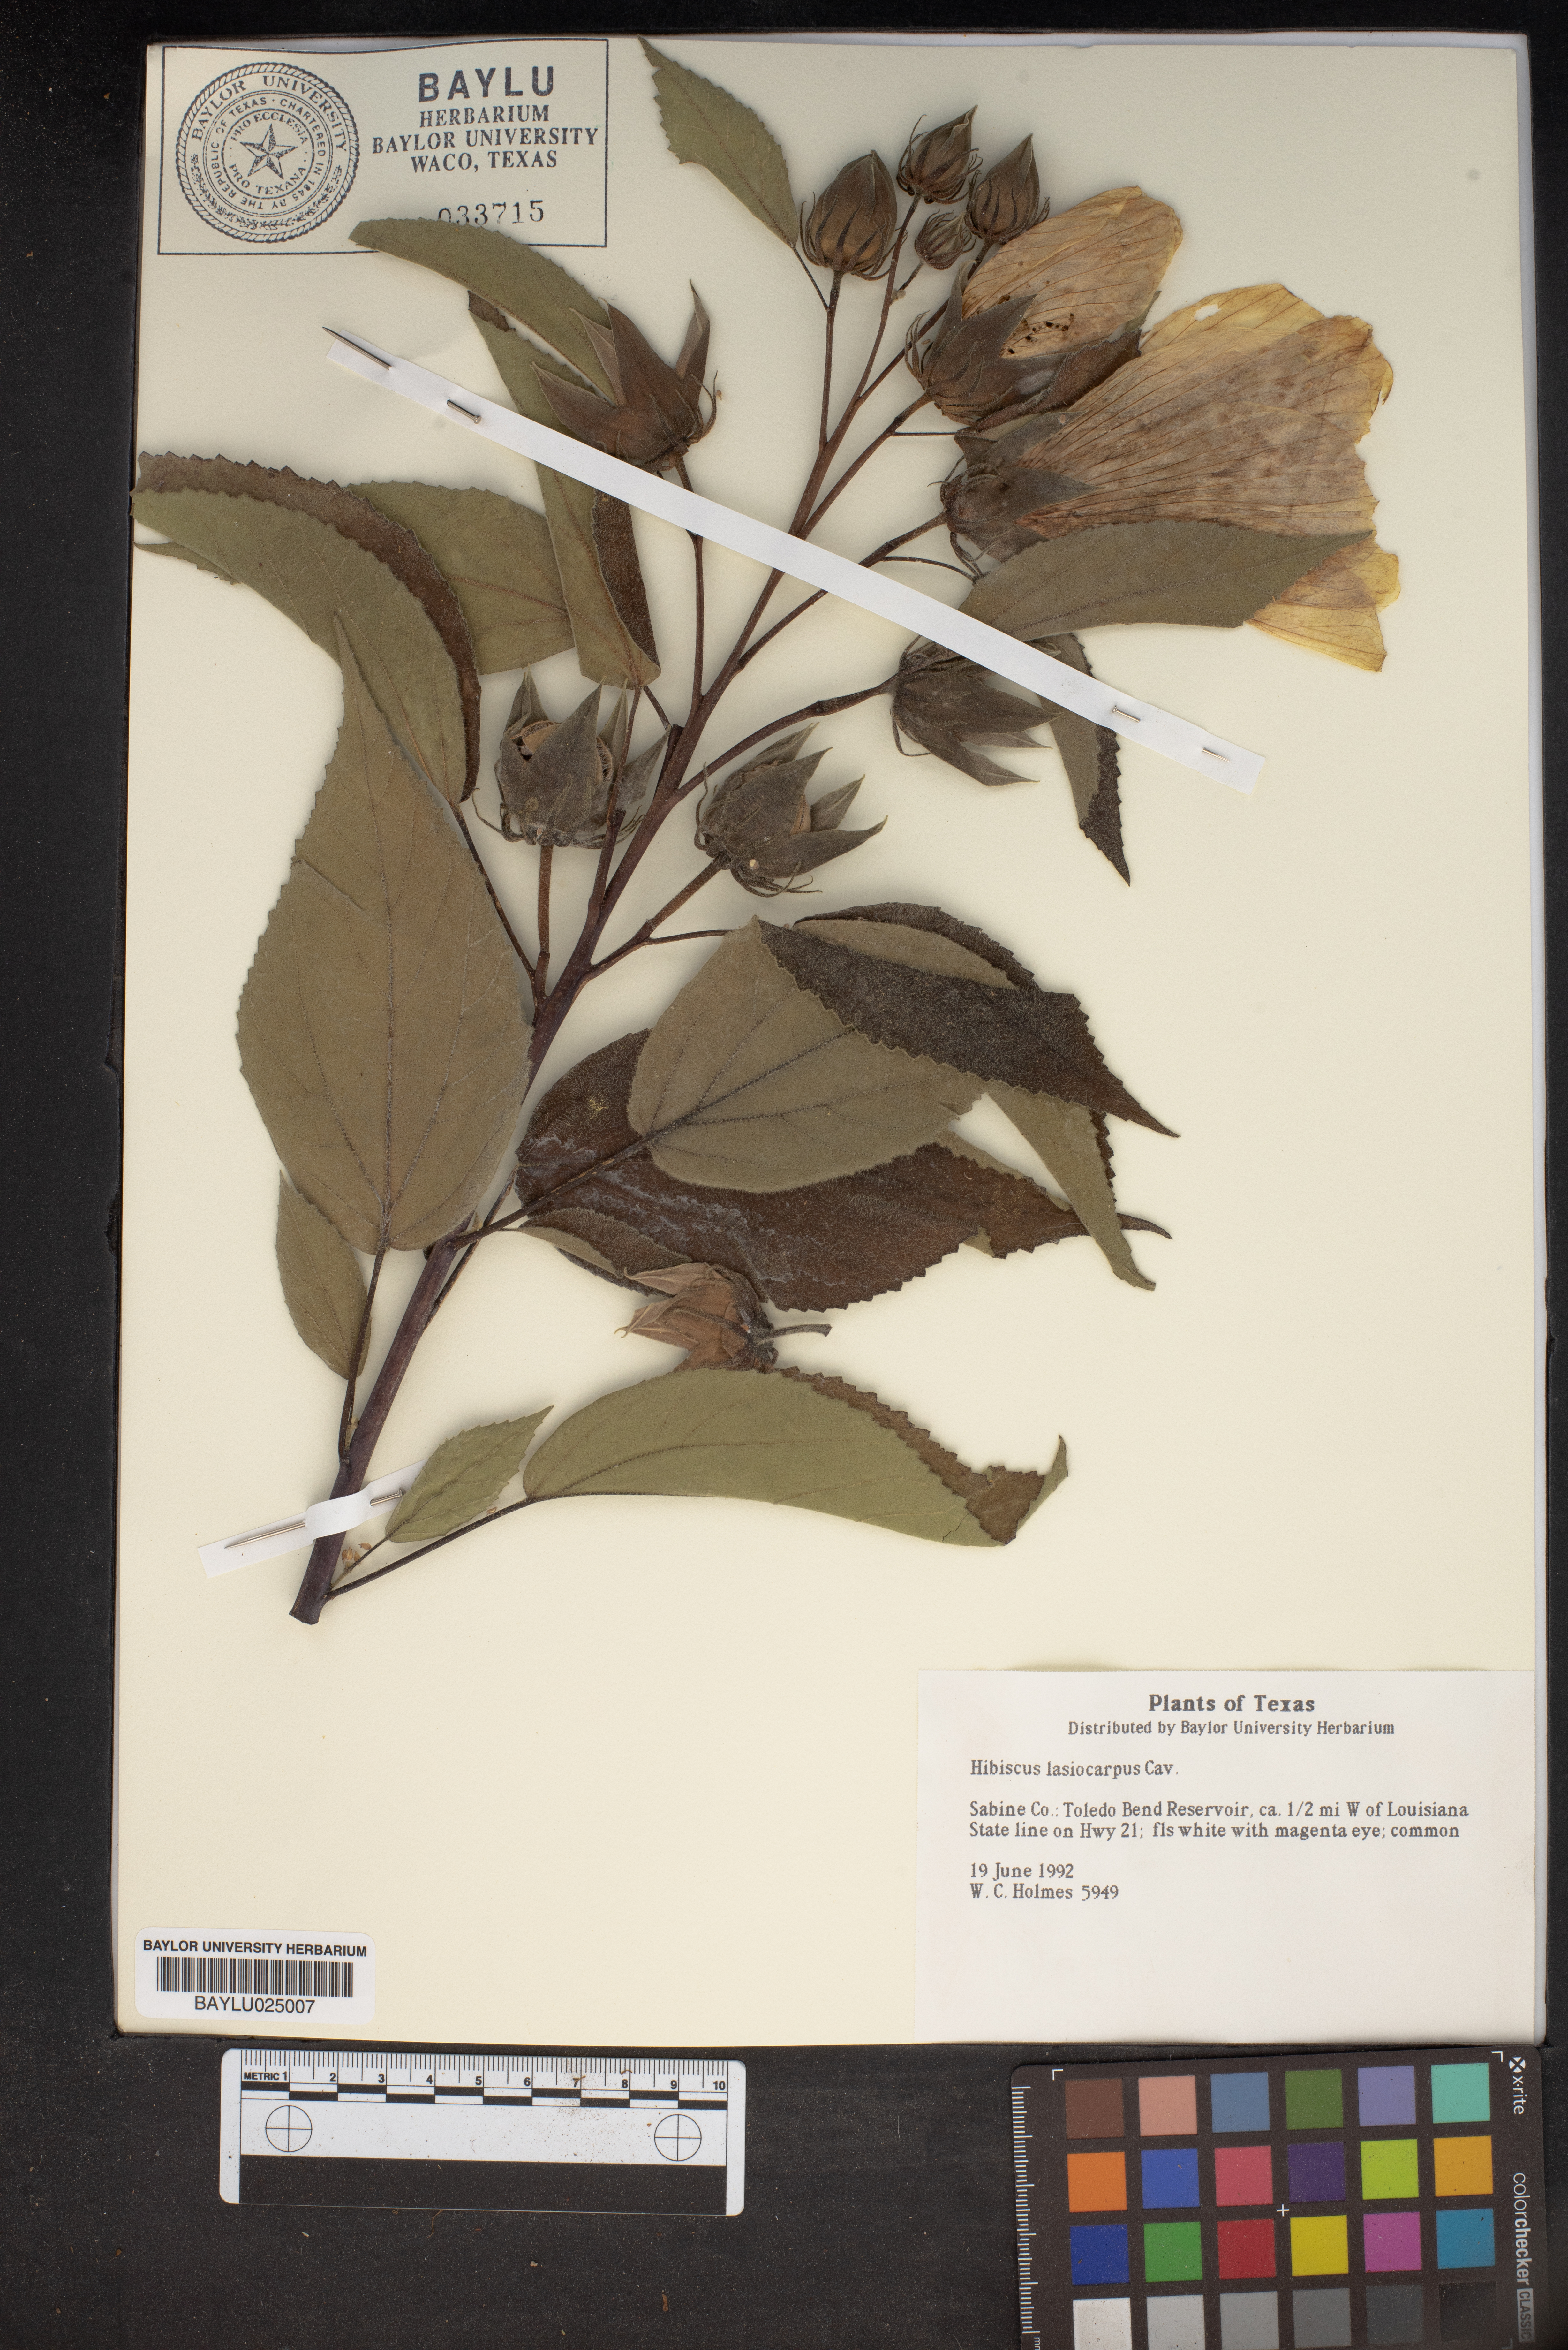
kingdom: Plantae
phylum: Tracheophyta
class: Magnoliopsida
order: Malvales
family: Malvaceae
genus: Hibiscus
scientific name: Hibiscus moscheutos
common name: Common rose-mallow
